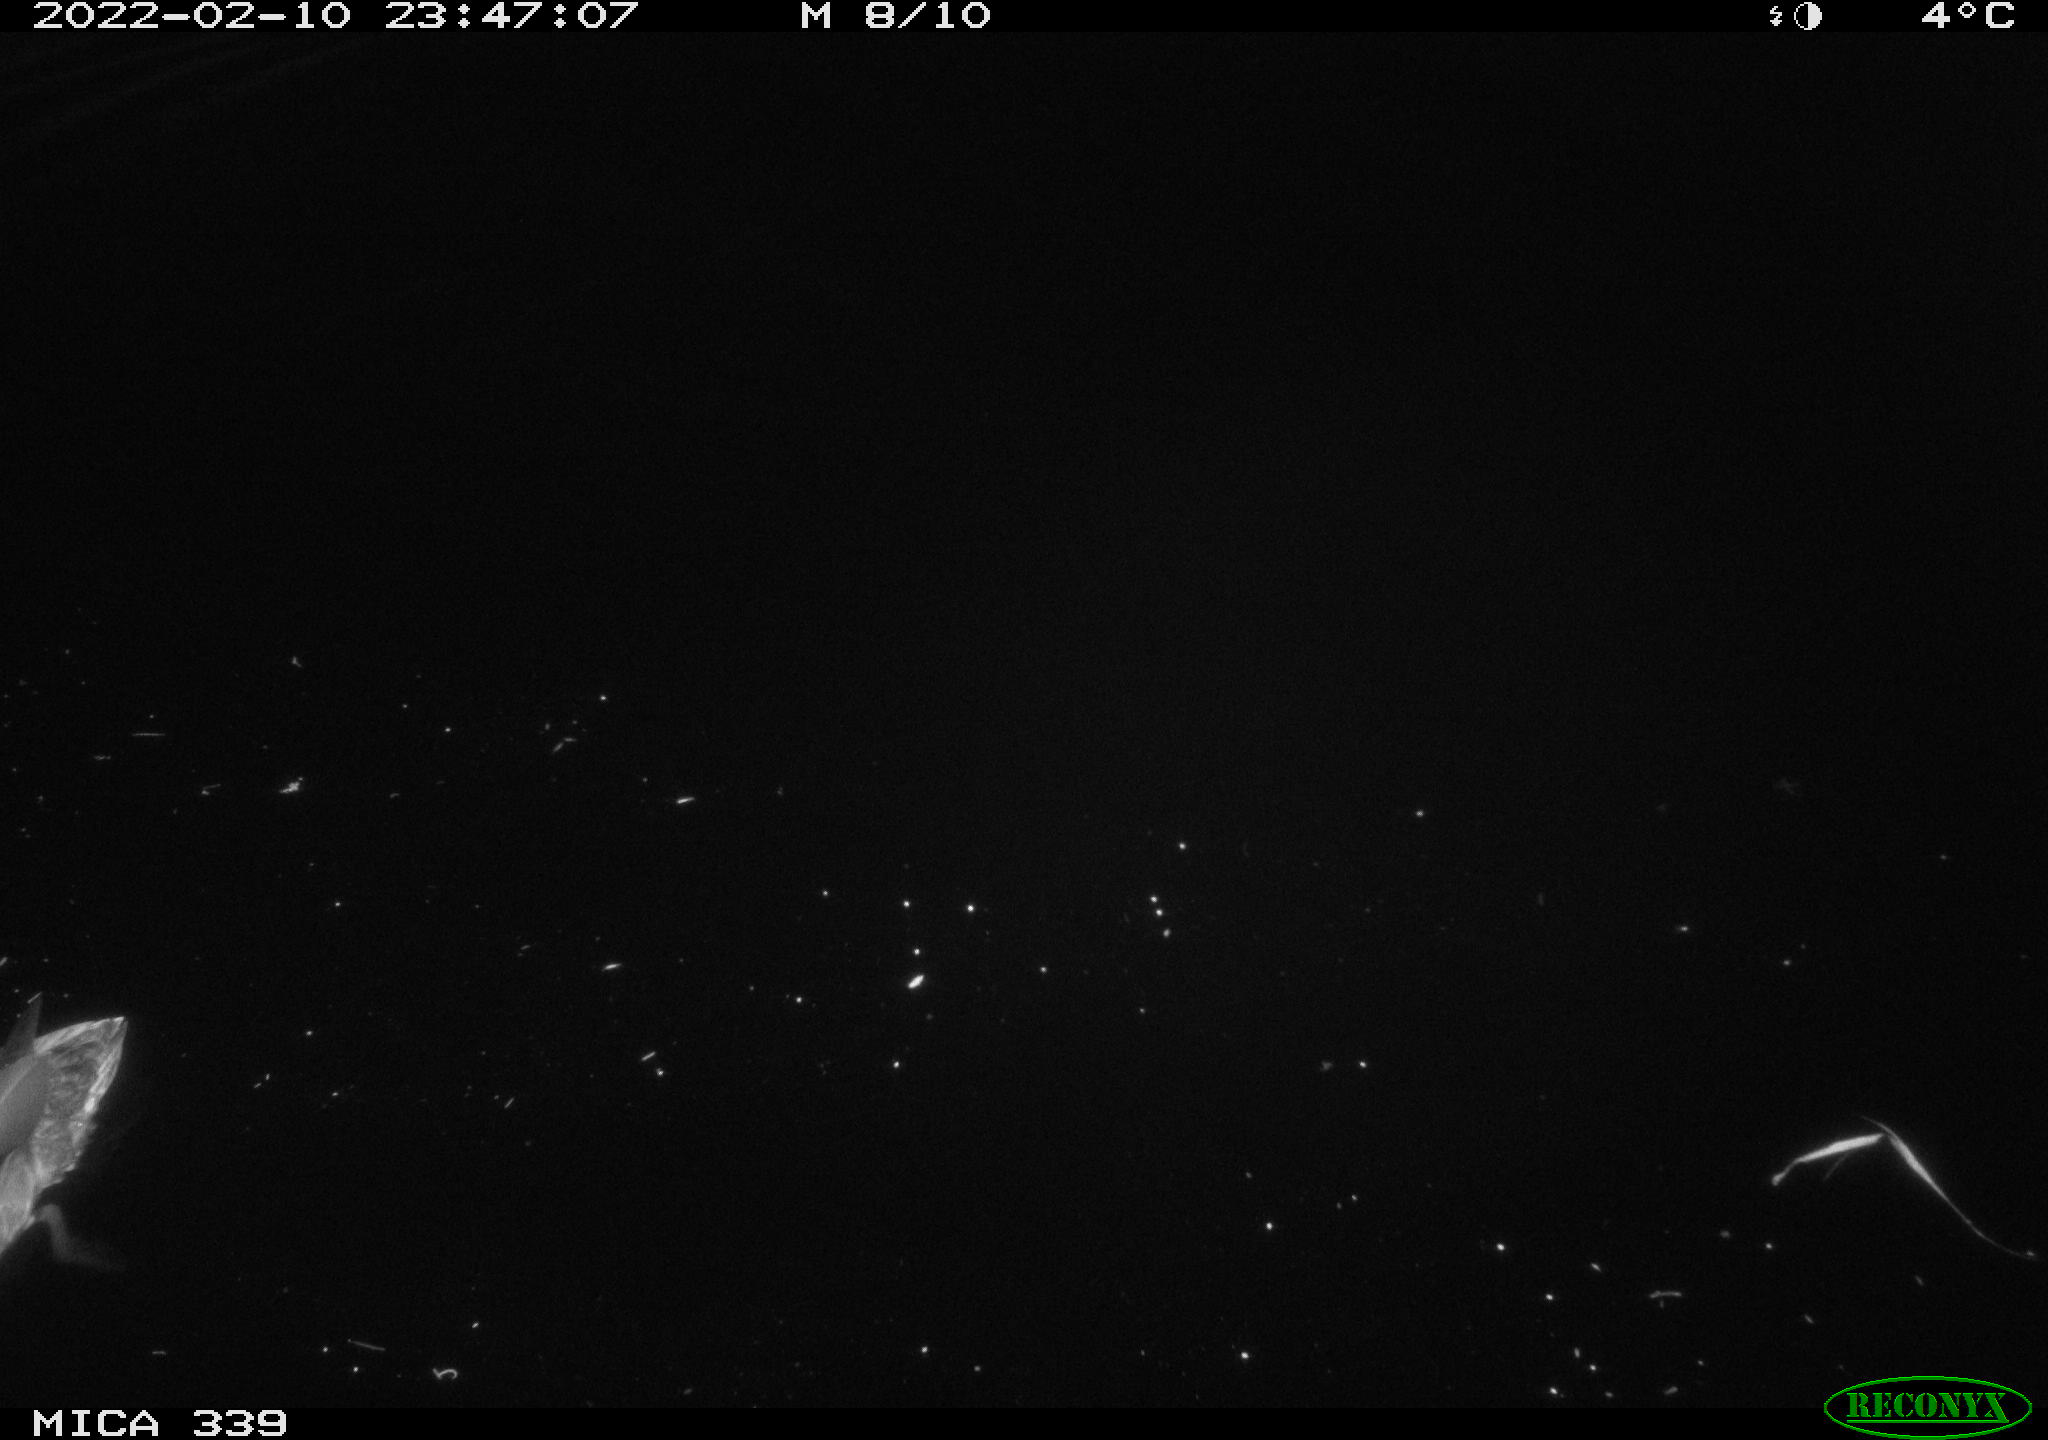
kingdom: Animalia
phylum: Chordata
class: Aves
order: Anseriformes
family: Anatidae
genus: Anas
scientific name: Anas platyrhynchos
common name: Mallard
